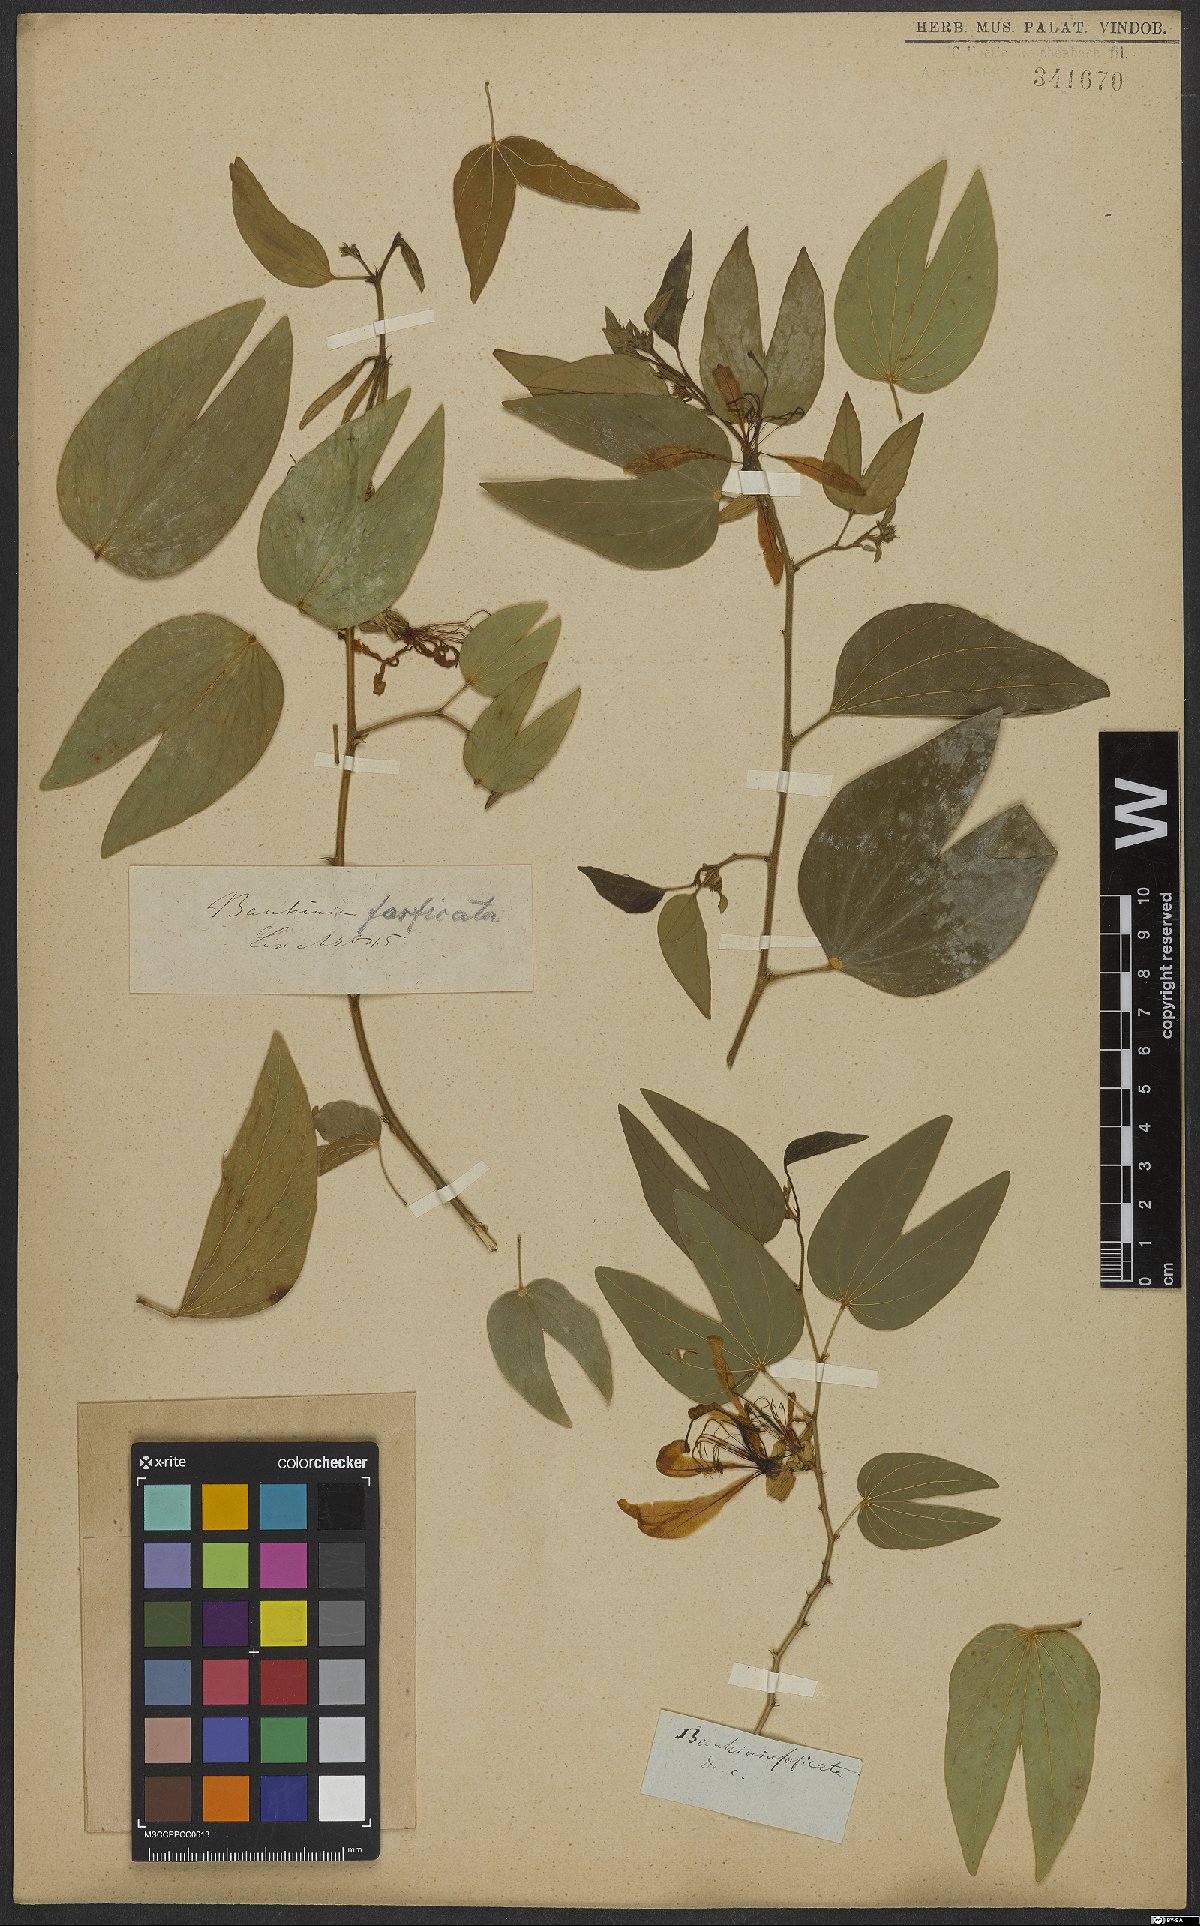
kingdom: Plantae
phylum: Tracheophyta
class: Magnoliopsida
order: Fabales
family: Fabaceae
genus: Bauhinia
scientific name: Bauhinia forficata
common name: Orchid tree
